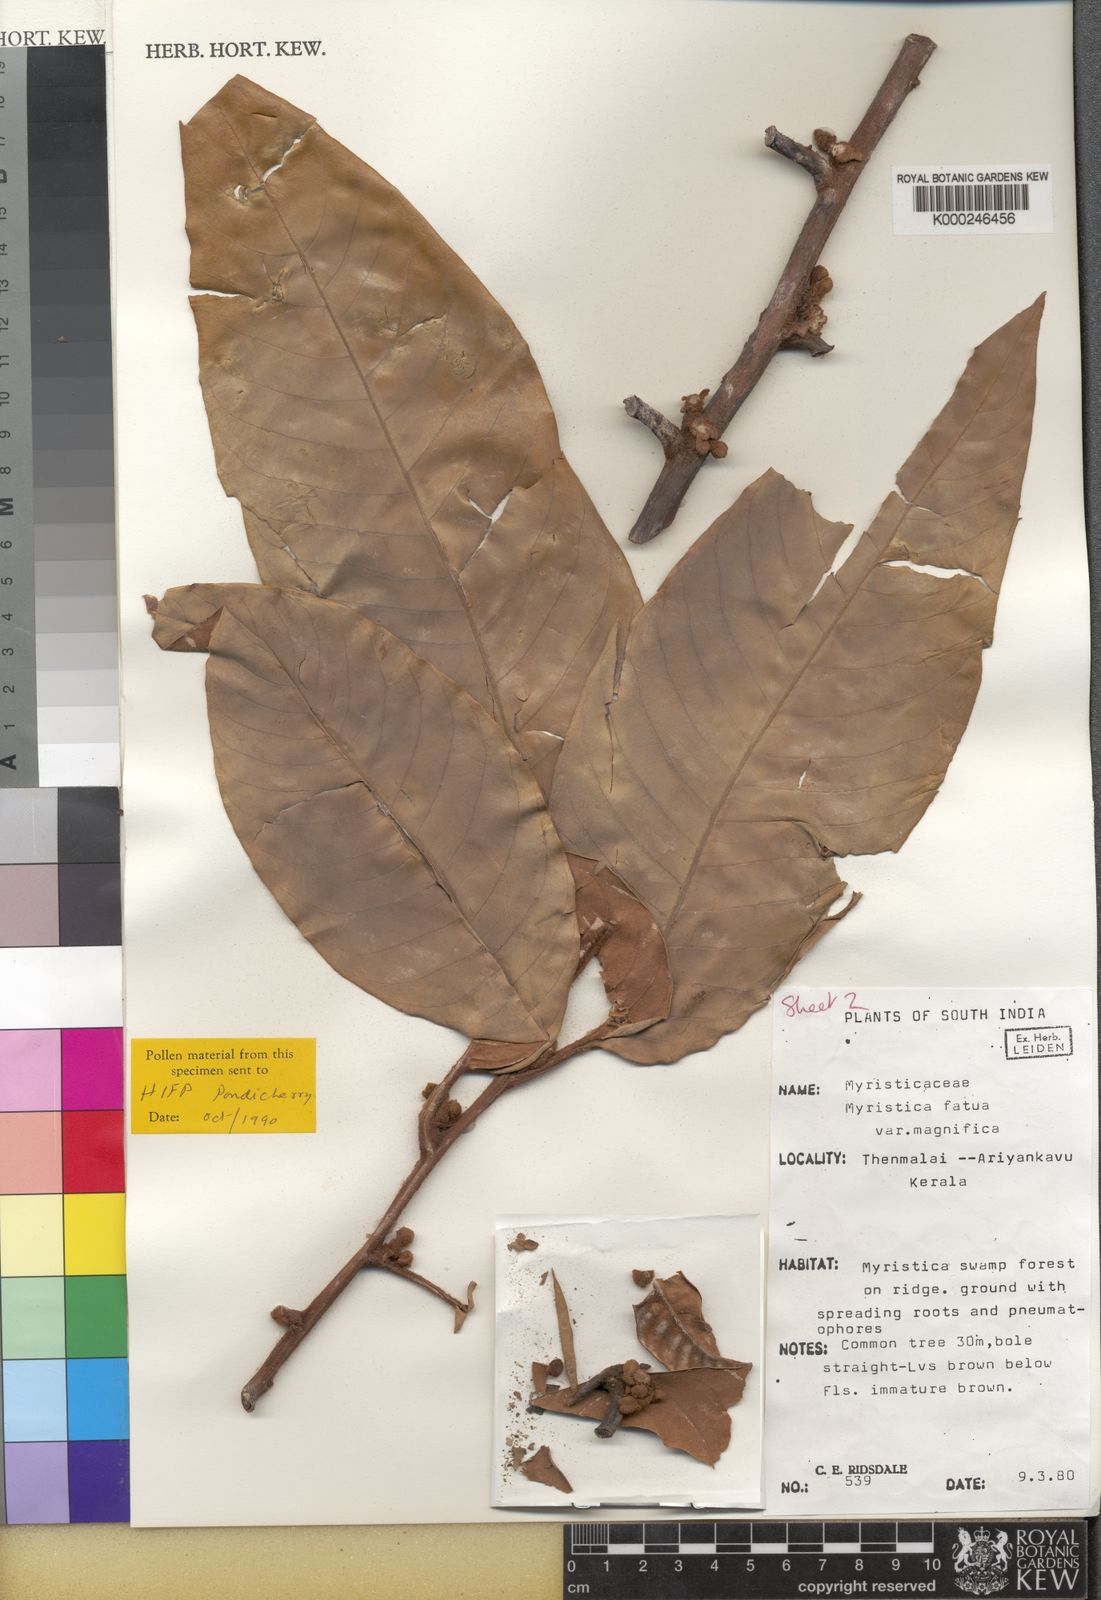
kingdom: Plantae
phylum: Tracheophyta
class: Magnoliopsida
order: Magnoliales
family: Myristicaceae
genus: Myristica
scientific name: Myristica fatua
